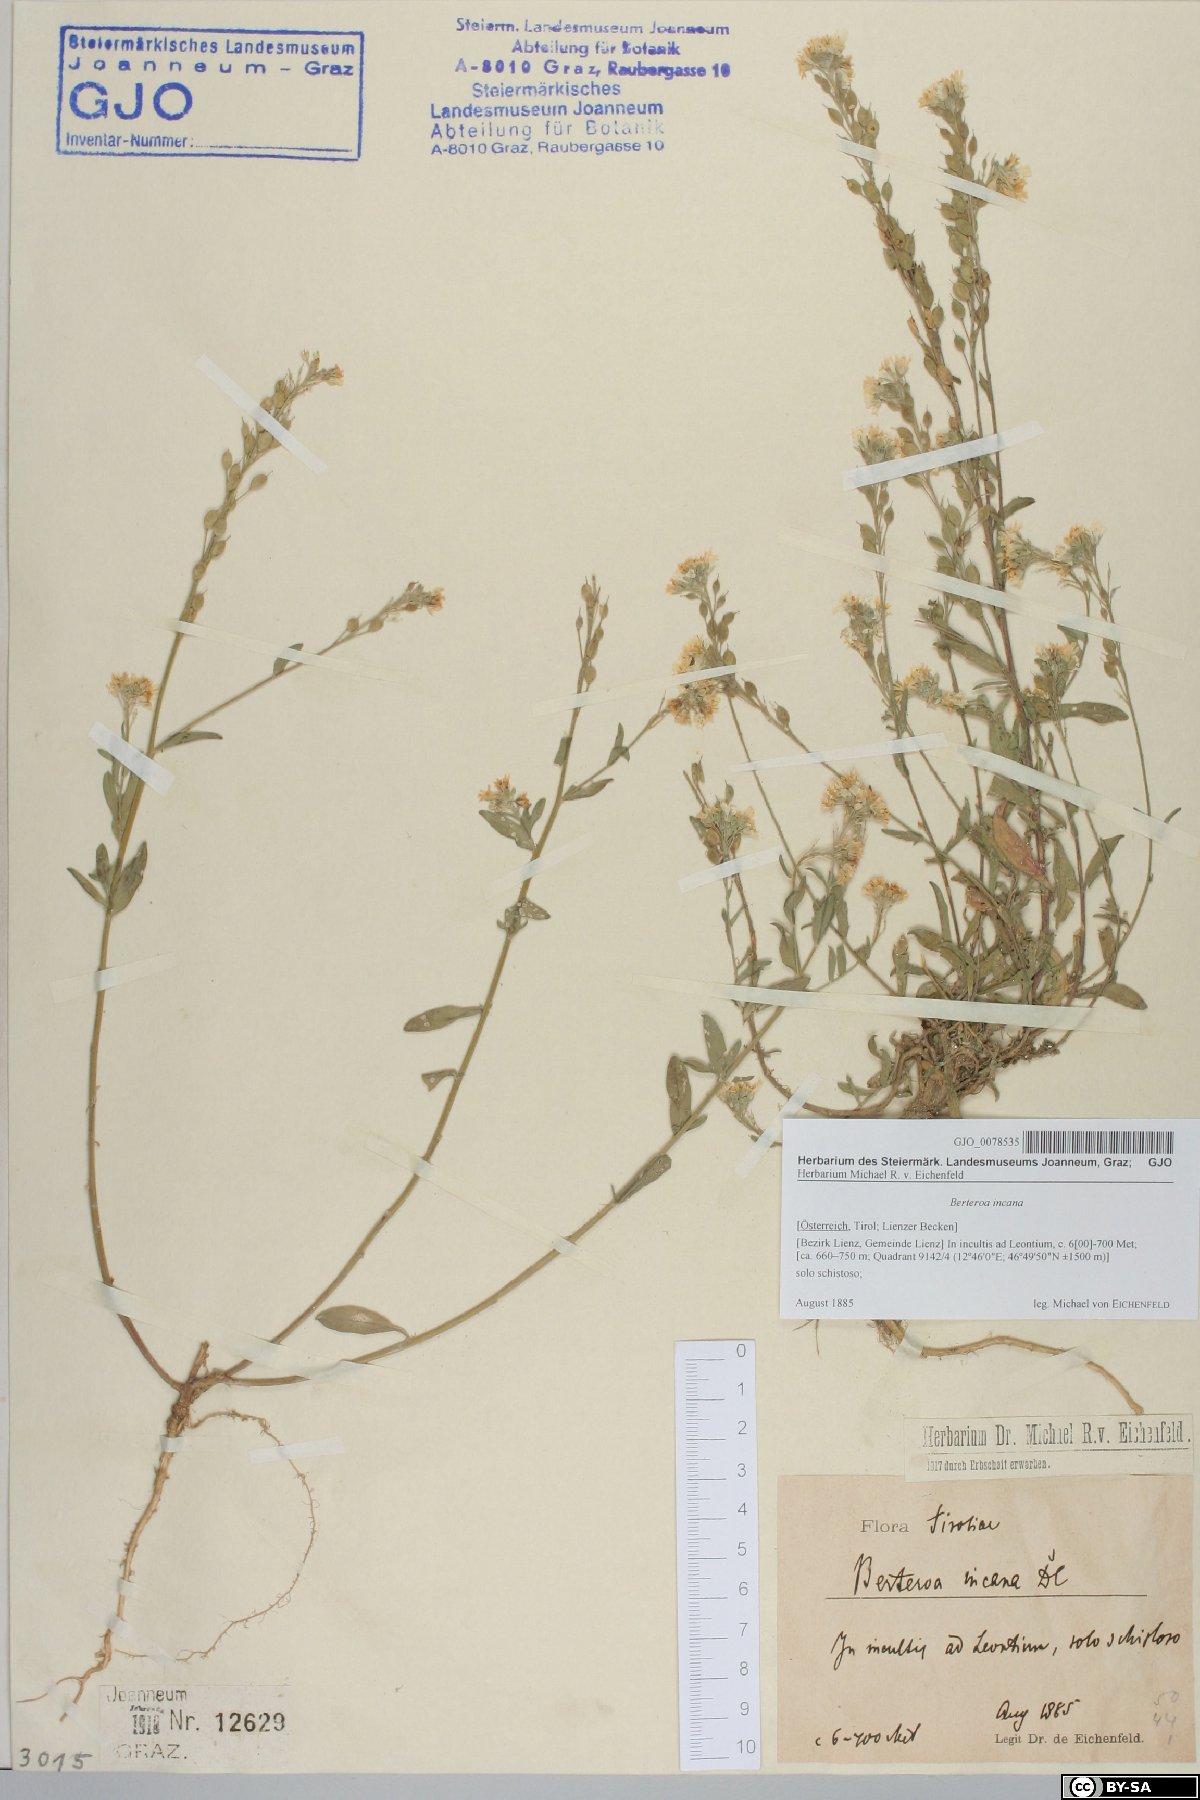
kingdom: Plantae
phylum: Tracheophyta
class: Magnoliopsida
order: Brassicales
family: Brassicaceae
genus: Berteroa
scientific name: Berteroa incana
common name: Hoary alison
